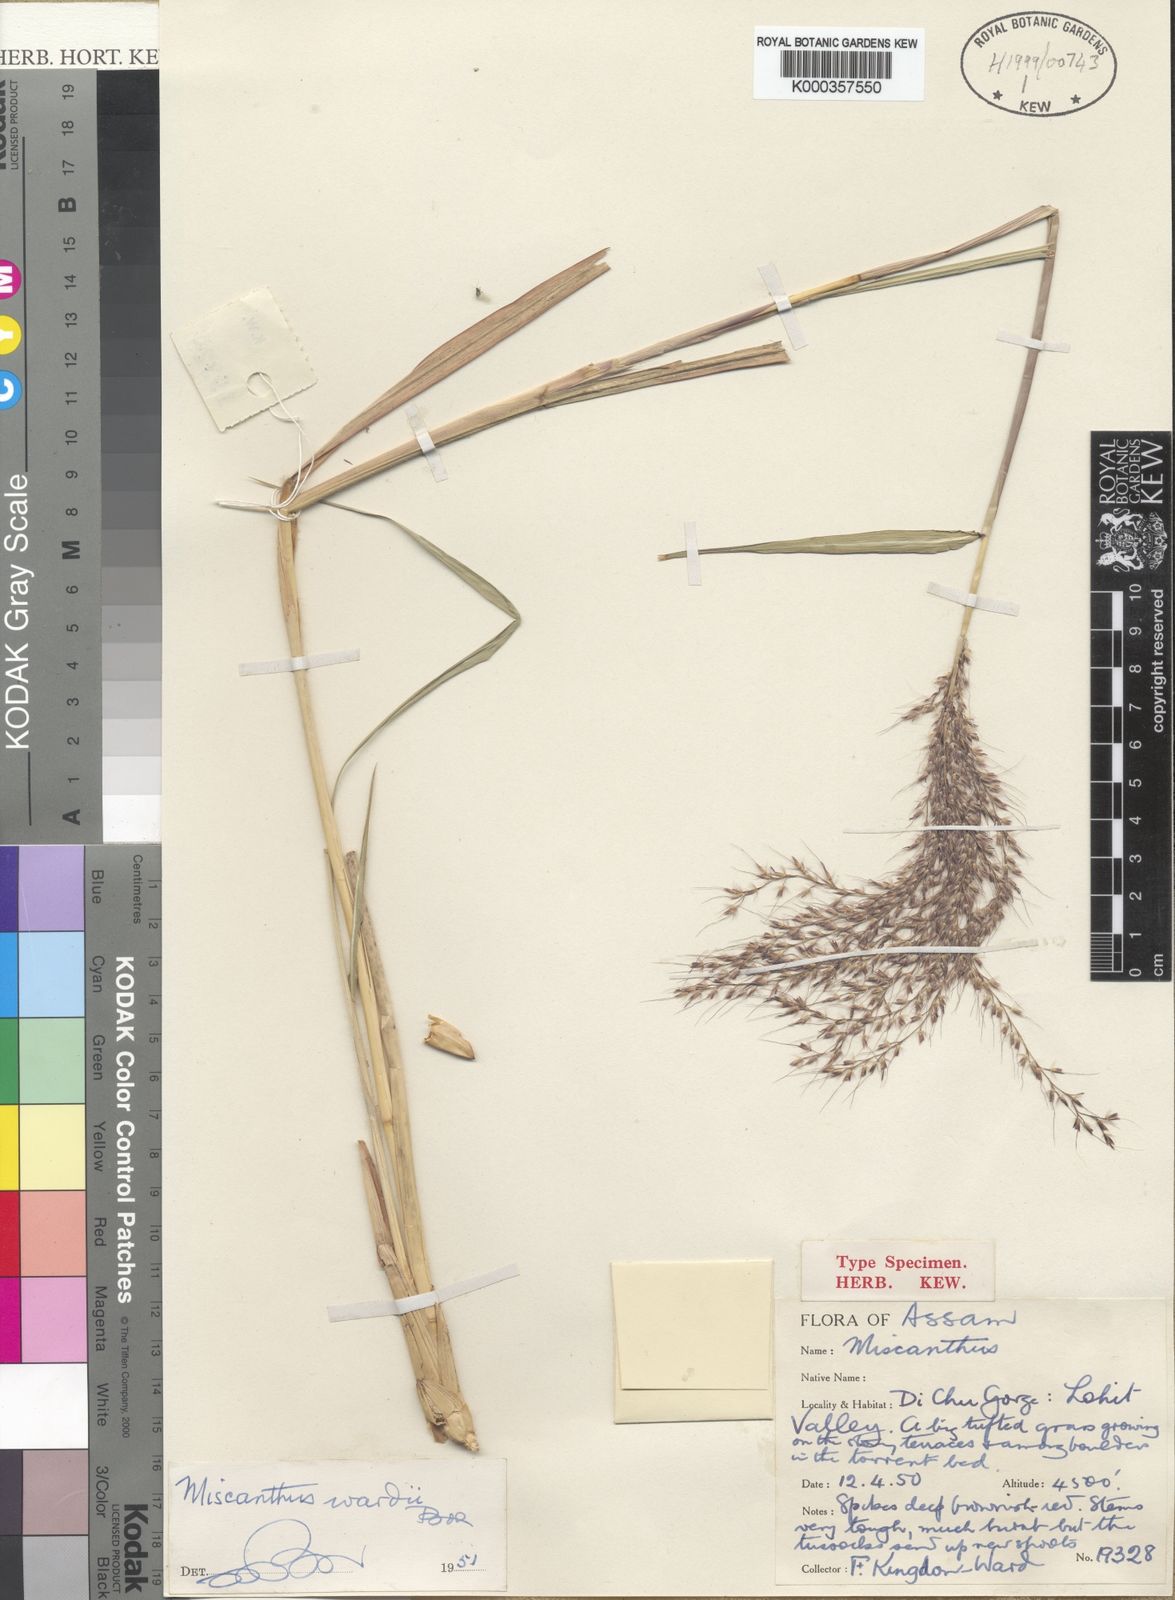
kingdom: Plantae
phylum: Tracheophyta
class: Liliopsida
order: Poales
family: Poaceae
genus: Miscanthus
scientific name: Miscanthus nudipes
